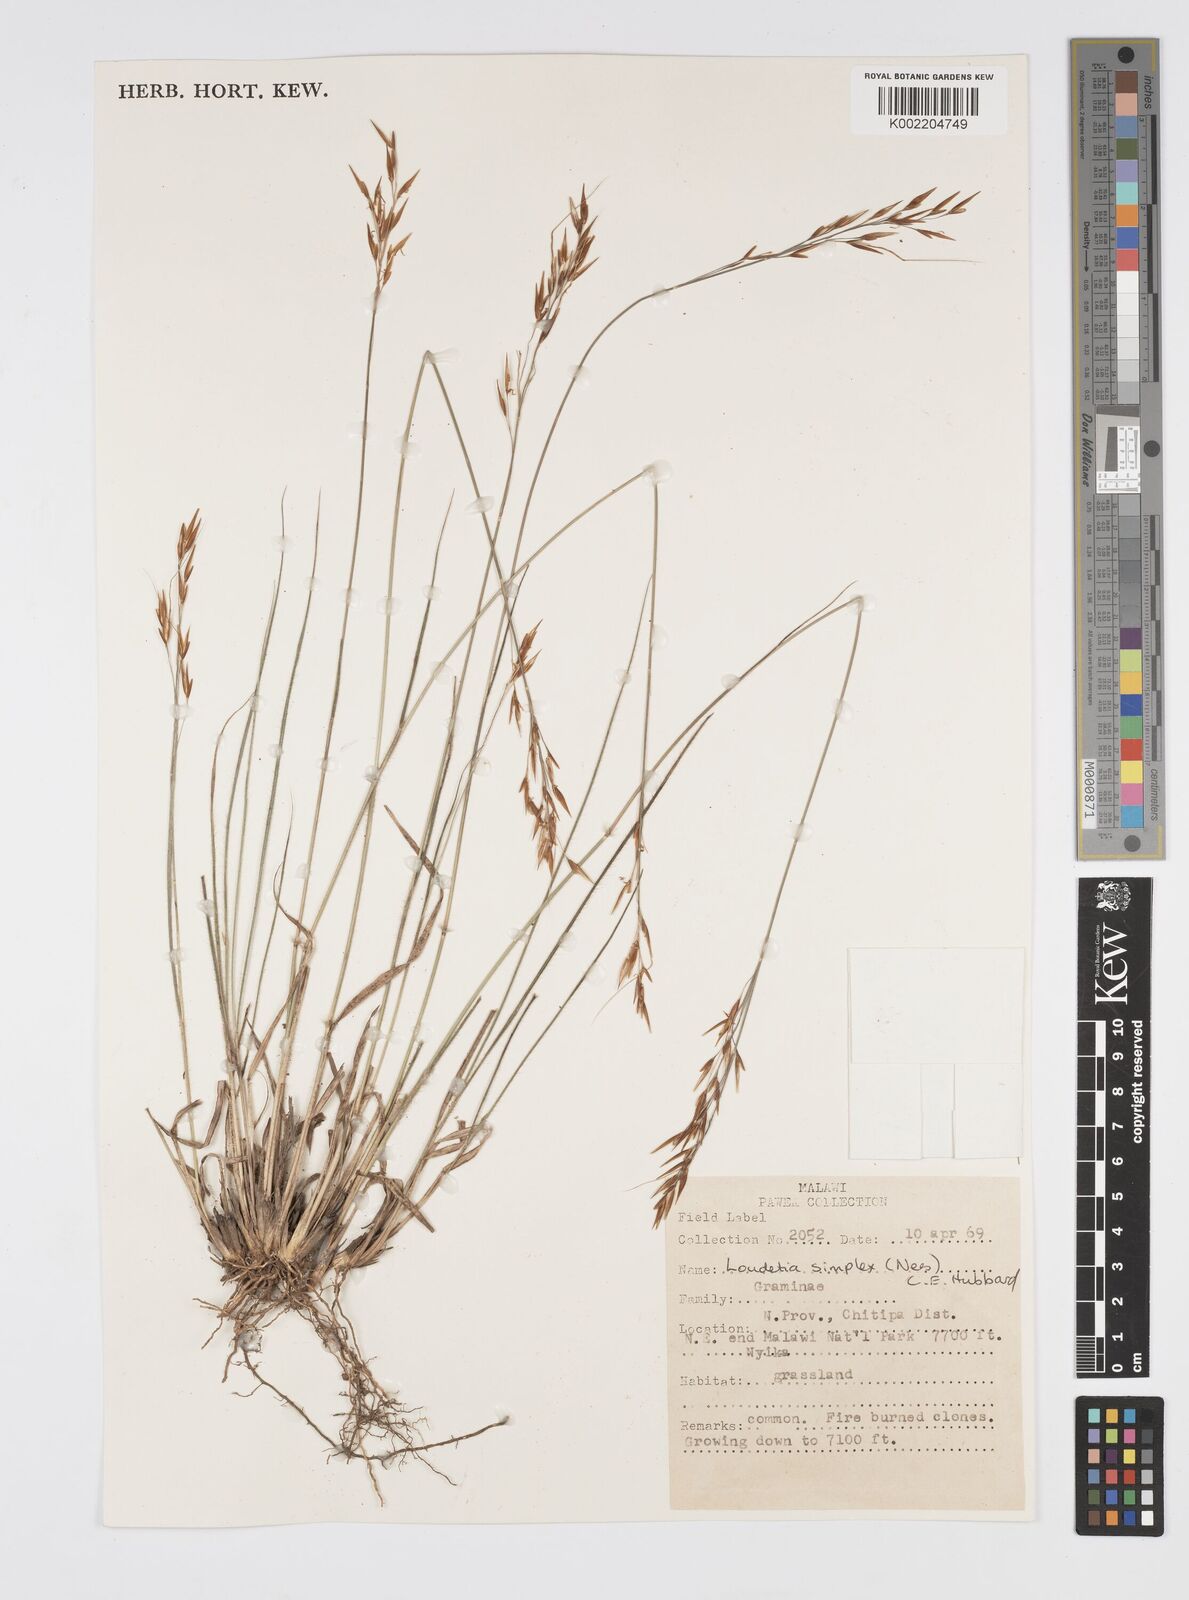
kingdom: Plantae
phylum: Tracheophyta
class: Liliopsida
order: Poales
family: Poaceae
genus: Loudetia
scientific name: Loudetia simplex
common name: Common russet grass
